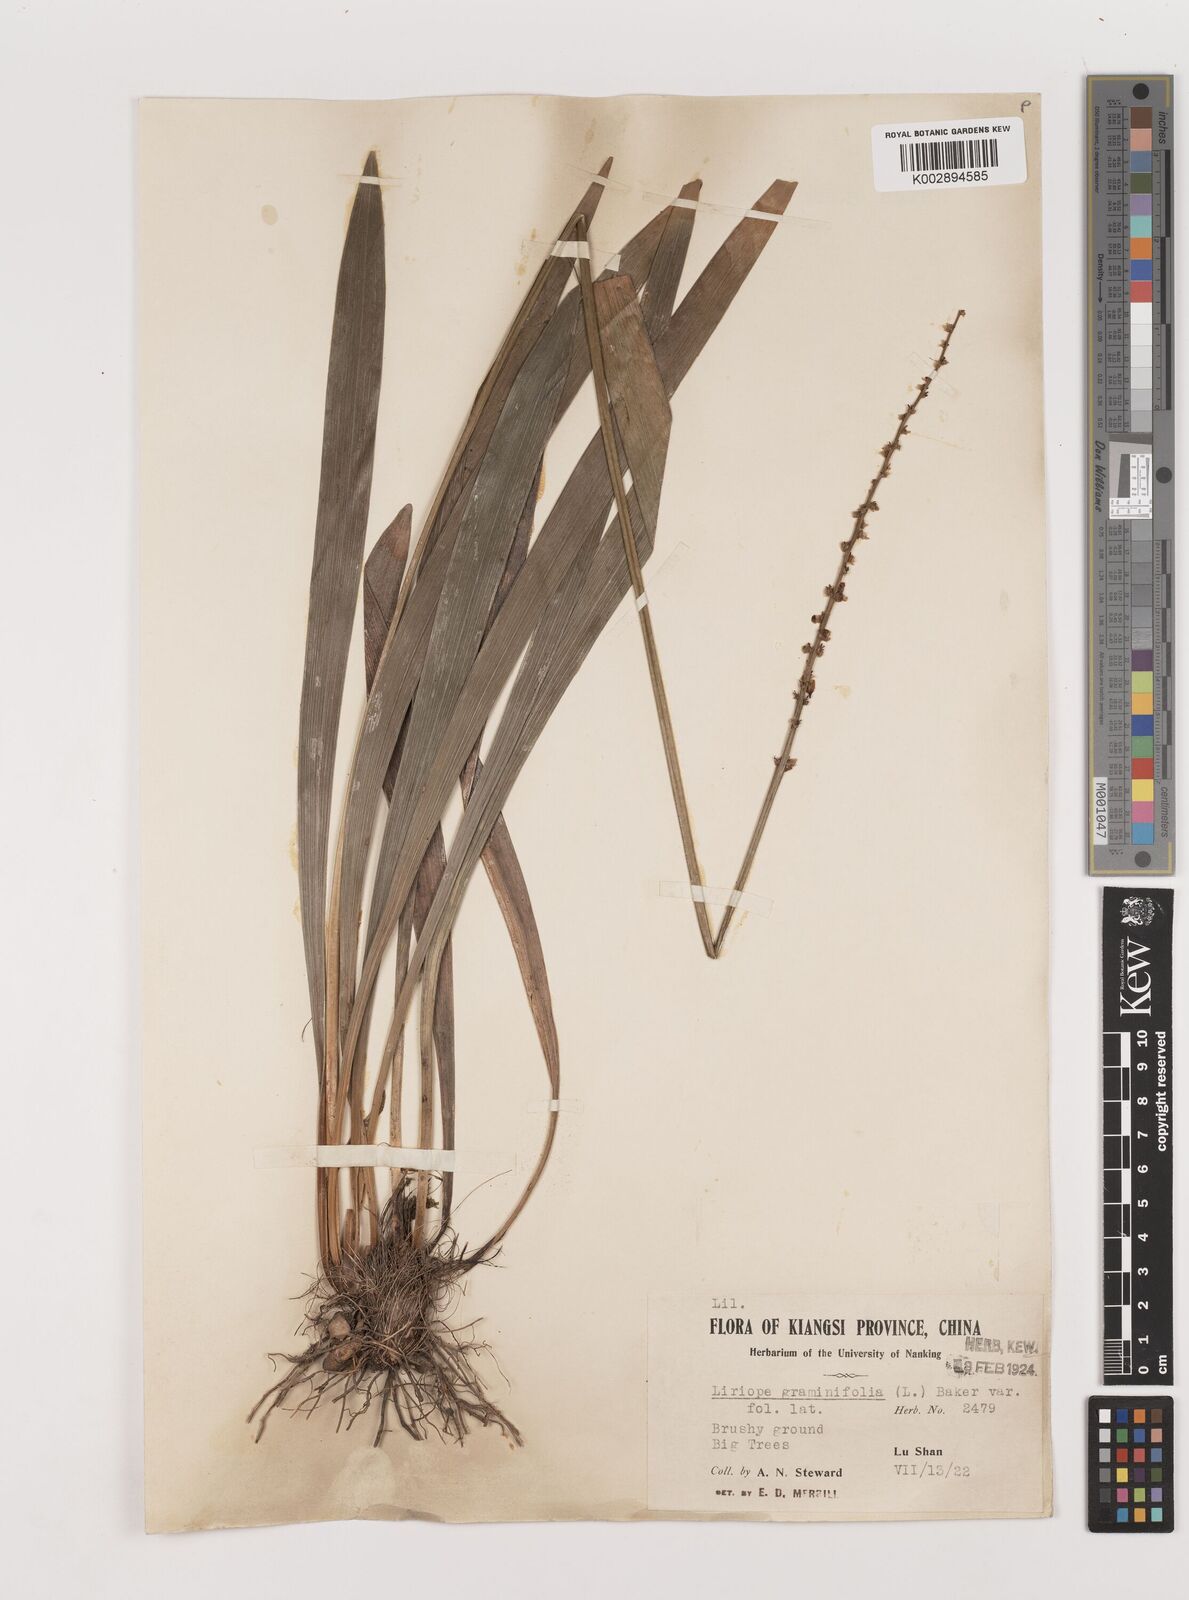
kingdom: Plantae
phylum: Tracheophyta
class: Liliopsida
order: Asparagales
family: Asparagaceae
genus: Liriope
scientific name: Liriope muscari
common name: Big blue lilyturf
